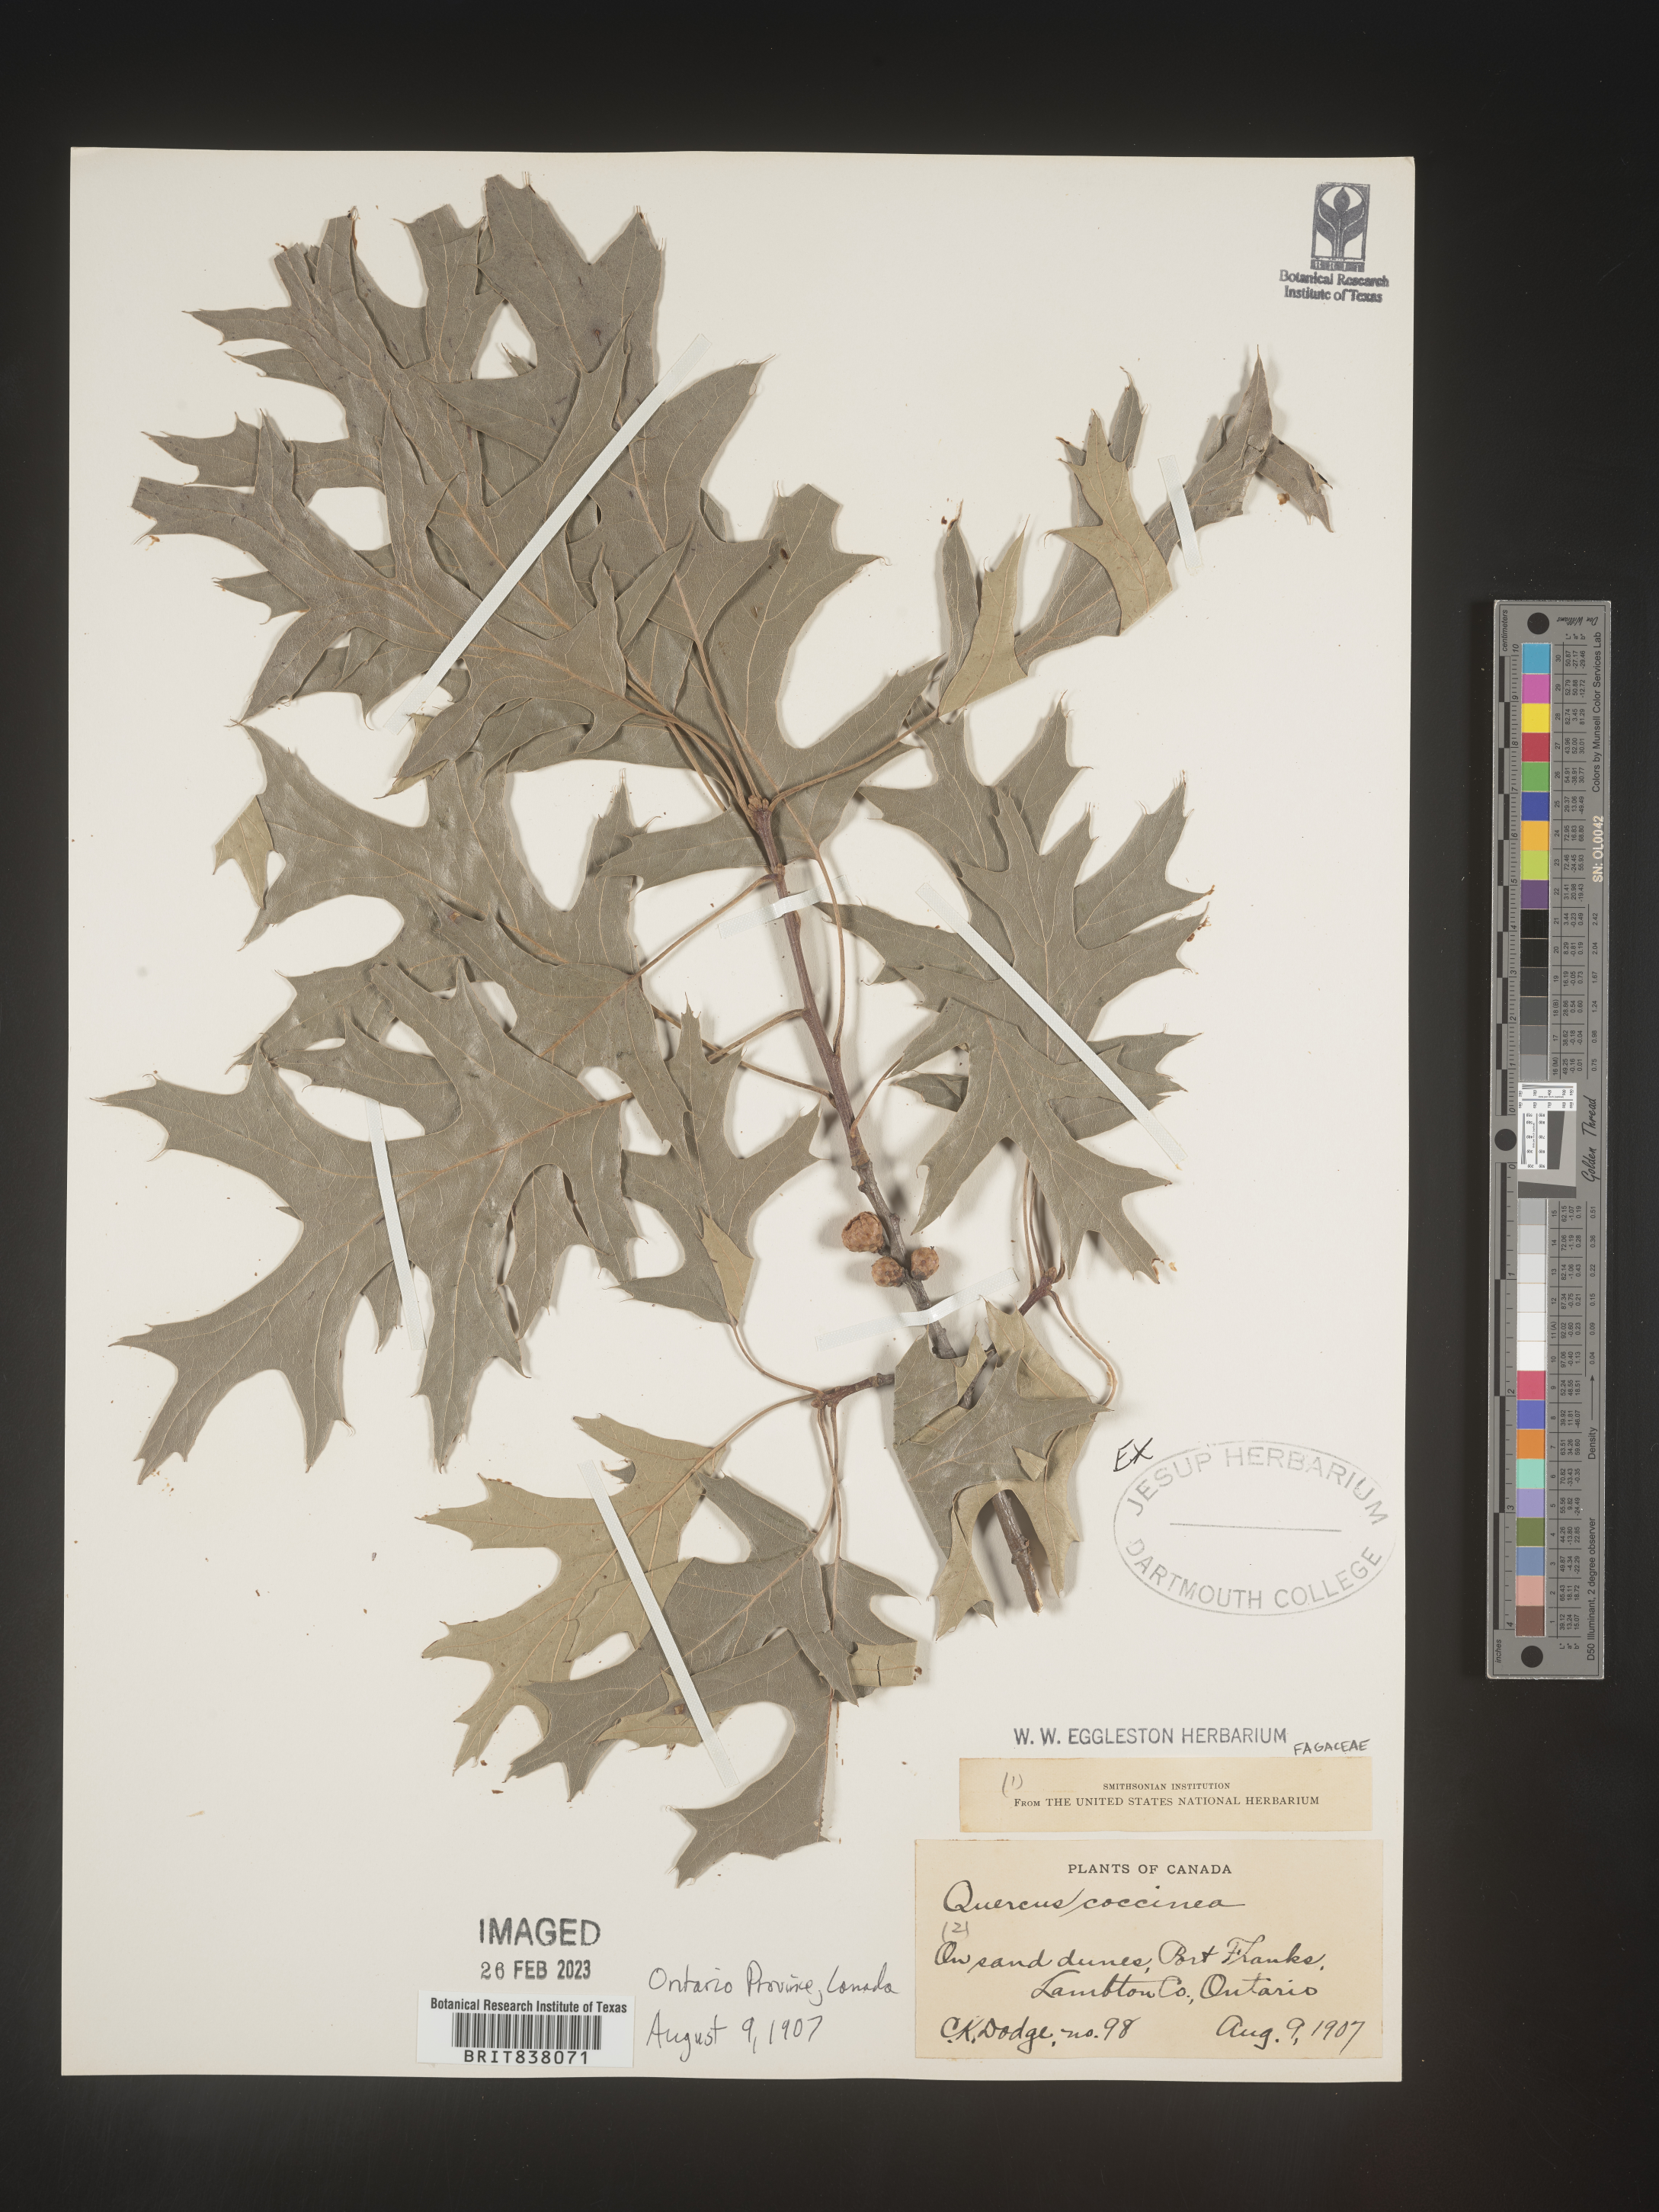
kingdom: Plantae
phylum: Tracheophyta
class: Magnoliopsida
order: Fagales
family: Fagaceae
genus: Quercus
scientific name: Quercus coccinea
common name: Scarlet oak
